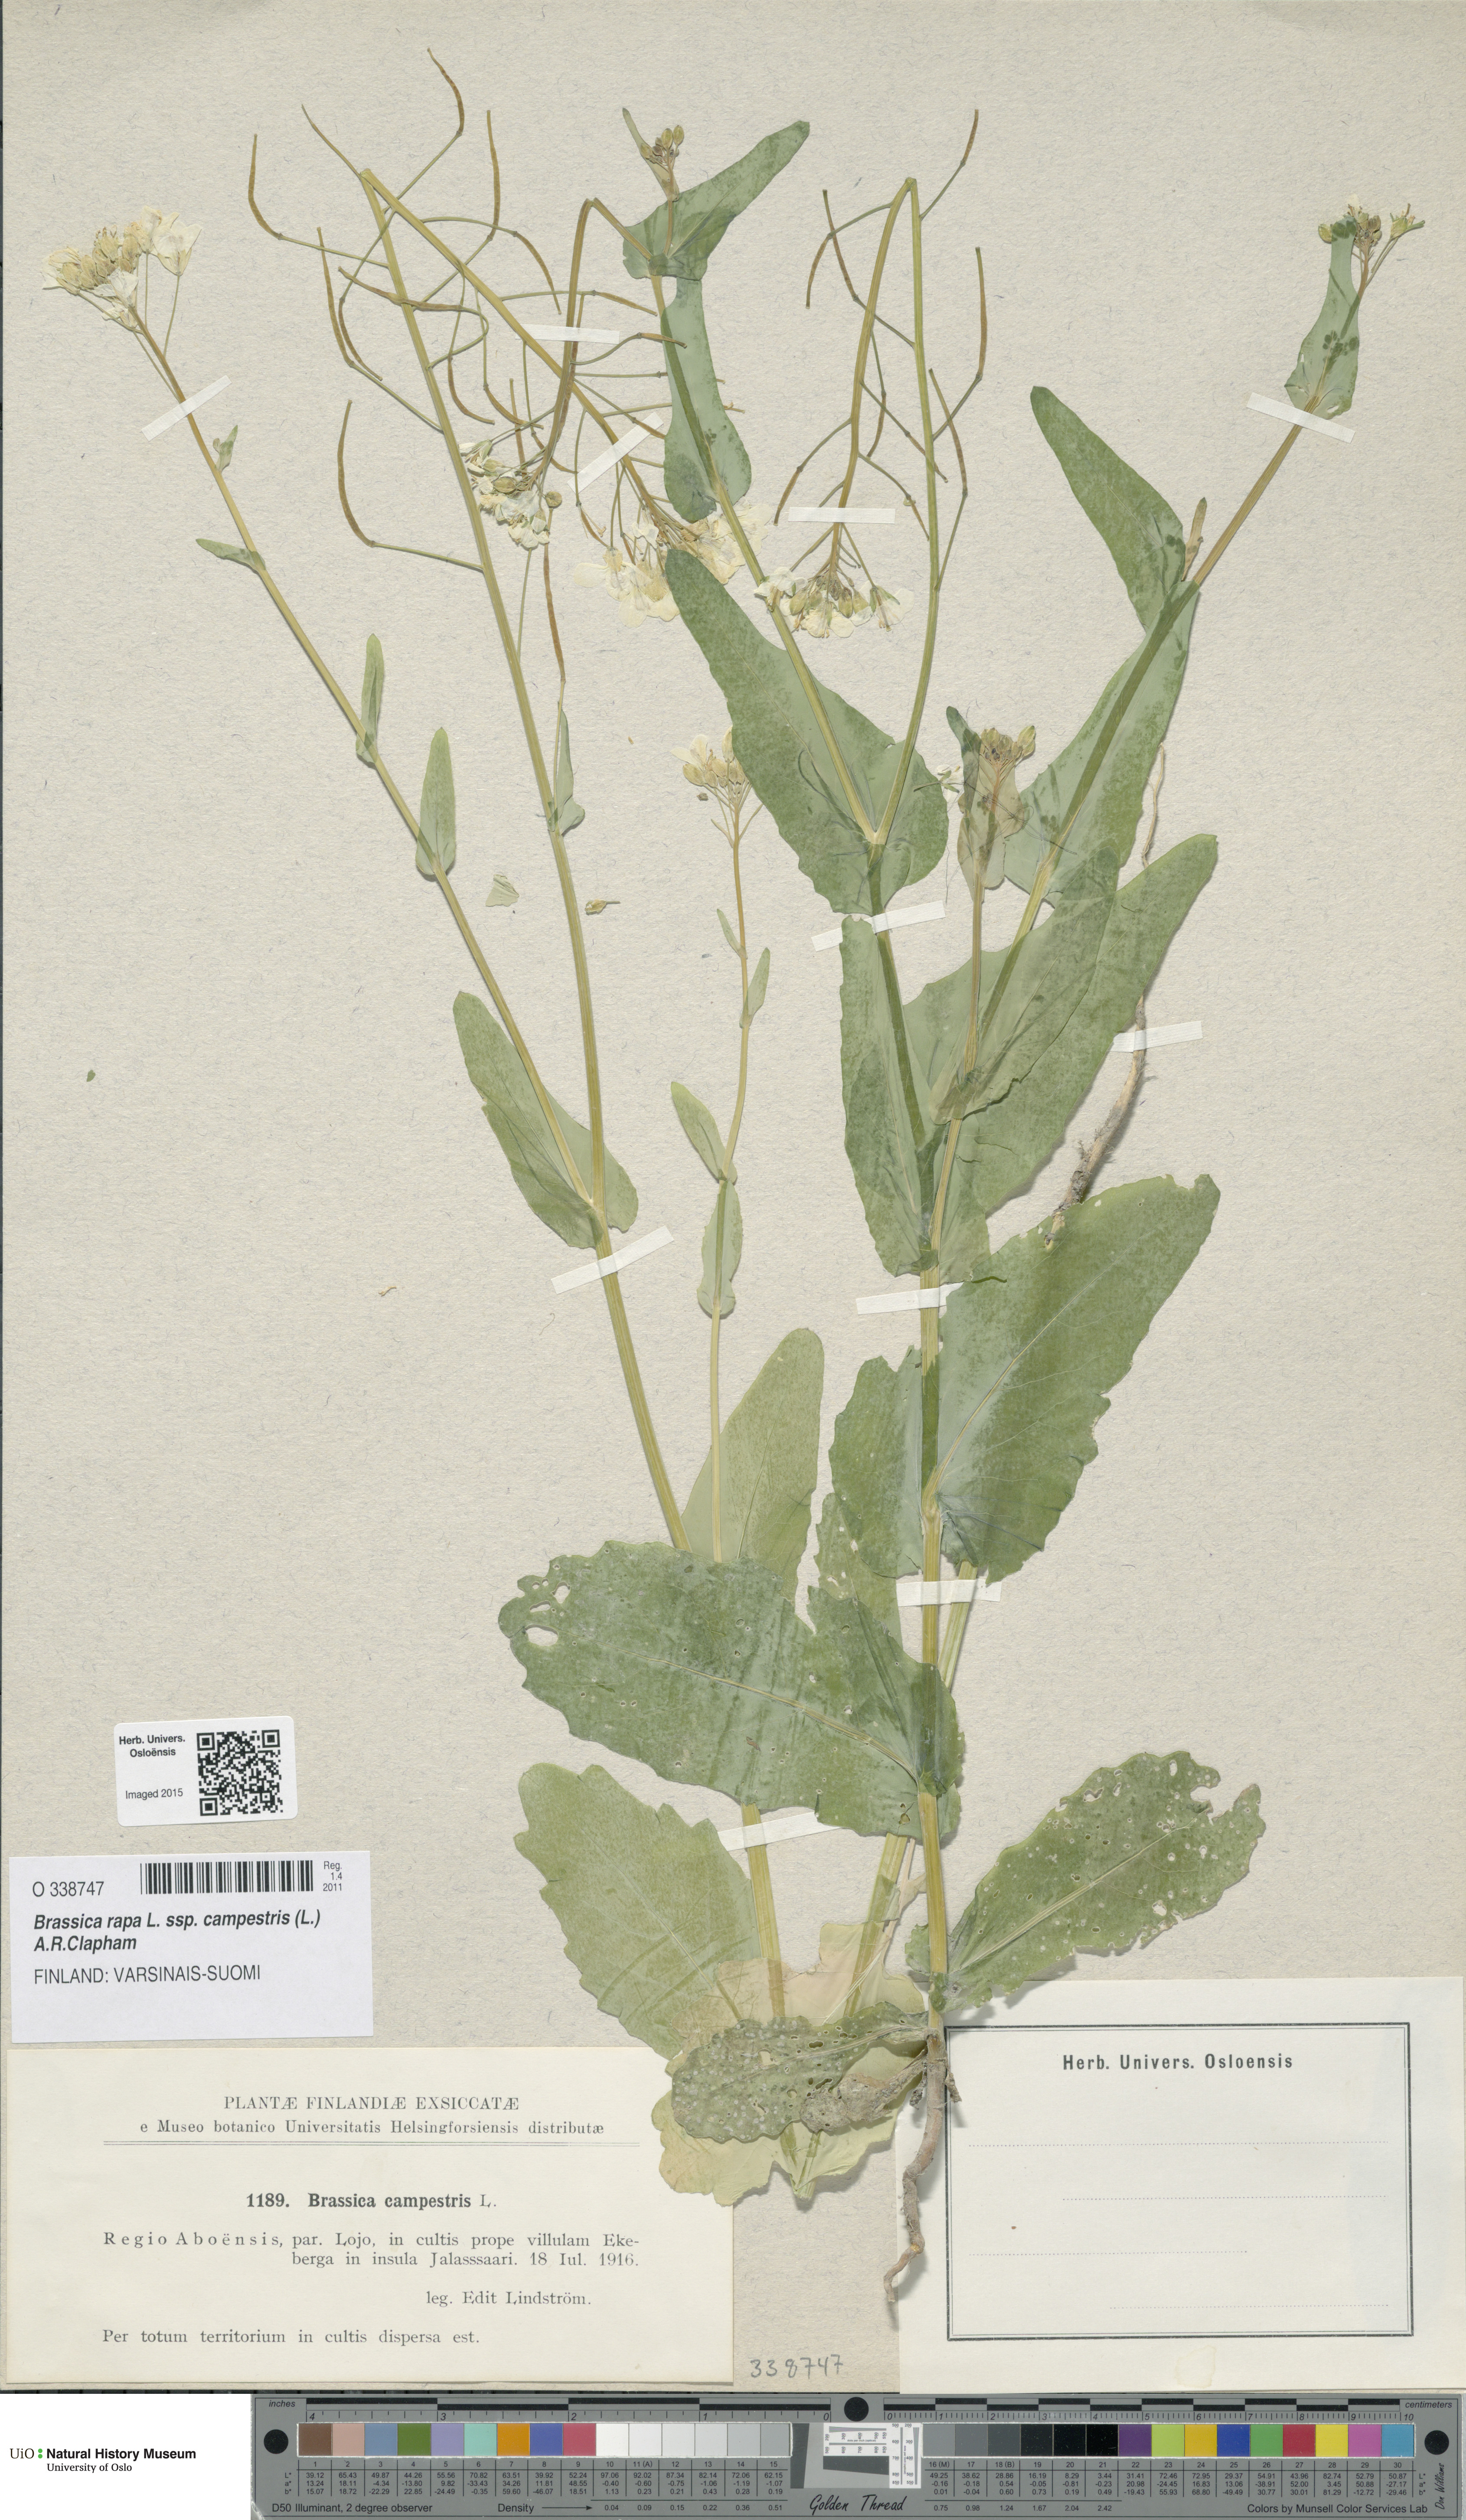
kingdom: Plantae
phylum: Tracheophyta
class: Magnoliopsida
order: Brassicales
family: Brassicaceae
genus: Brassica
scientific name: Brassica rapa
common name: Field mustard
